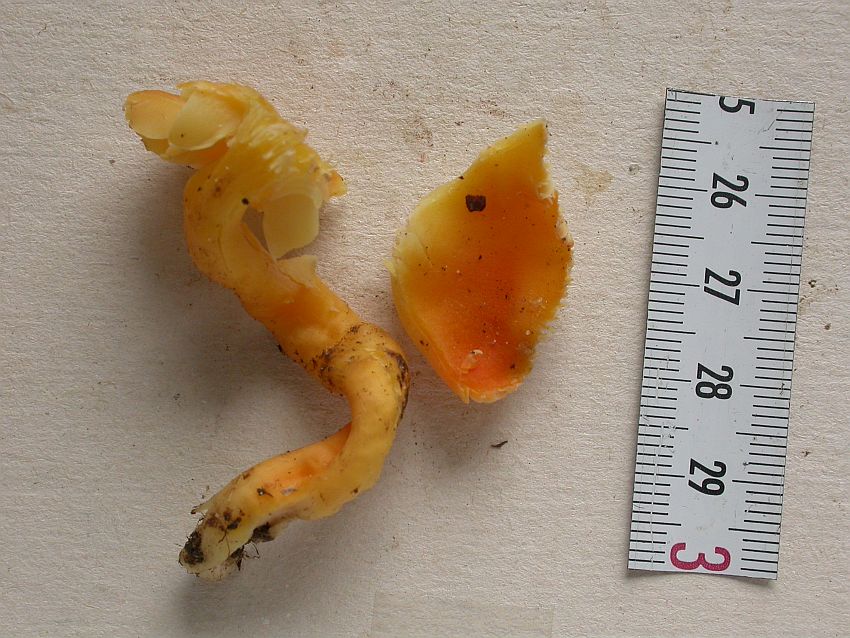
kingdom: Fungi
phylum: Basidiomycota
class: Agaricomycetes
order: Agaricales
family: Hygrophoraceae
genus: Hygrocybe
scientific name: Hygrocybe reidii
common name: honning-vokshat
